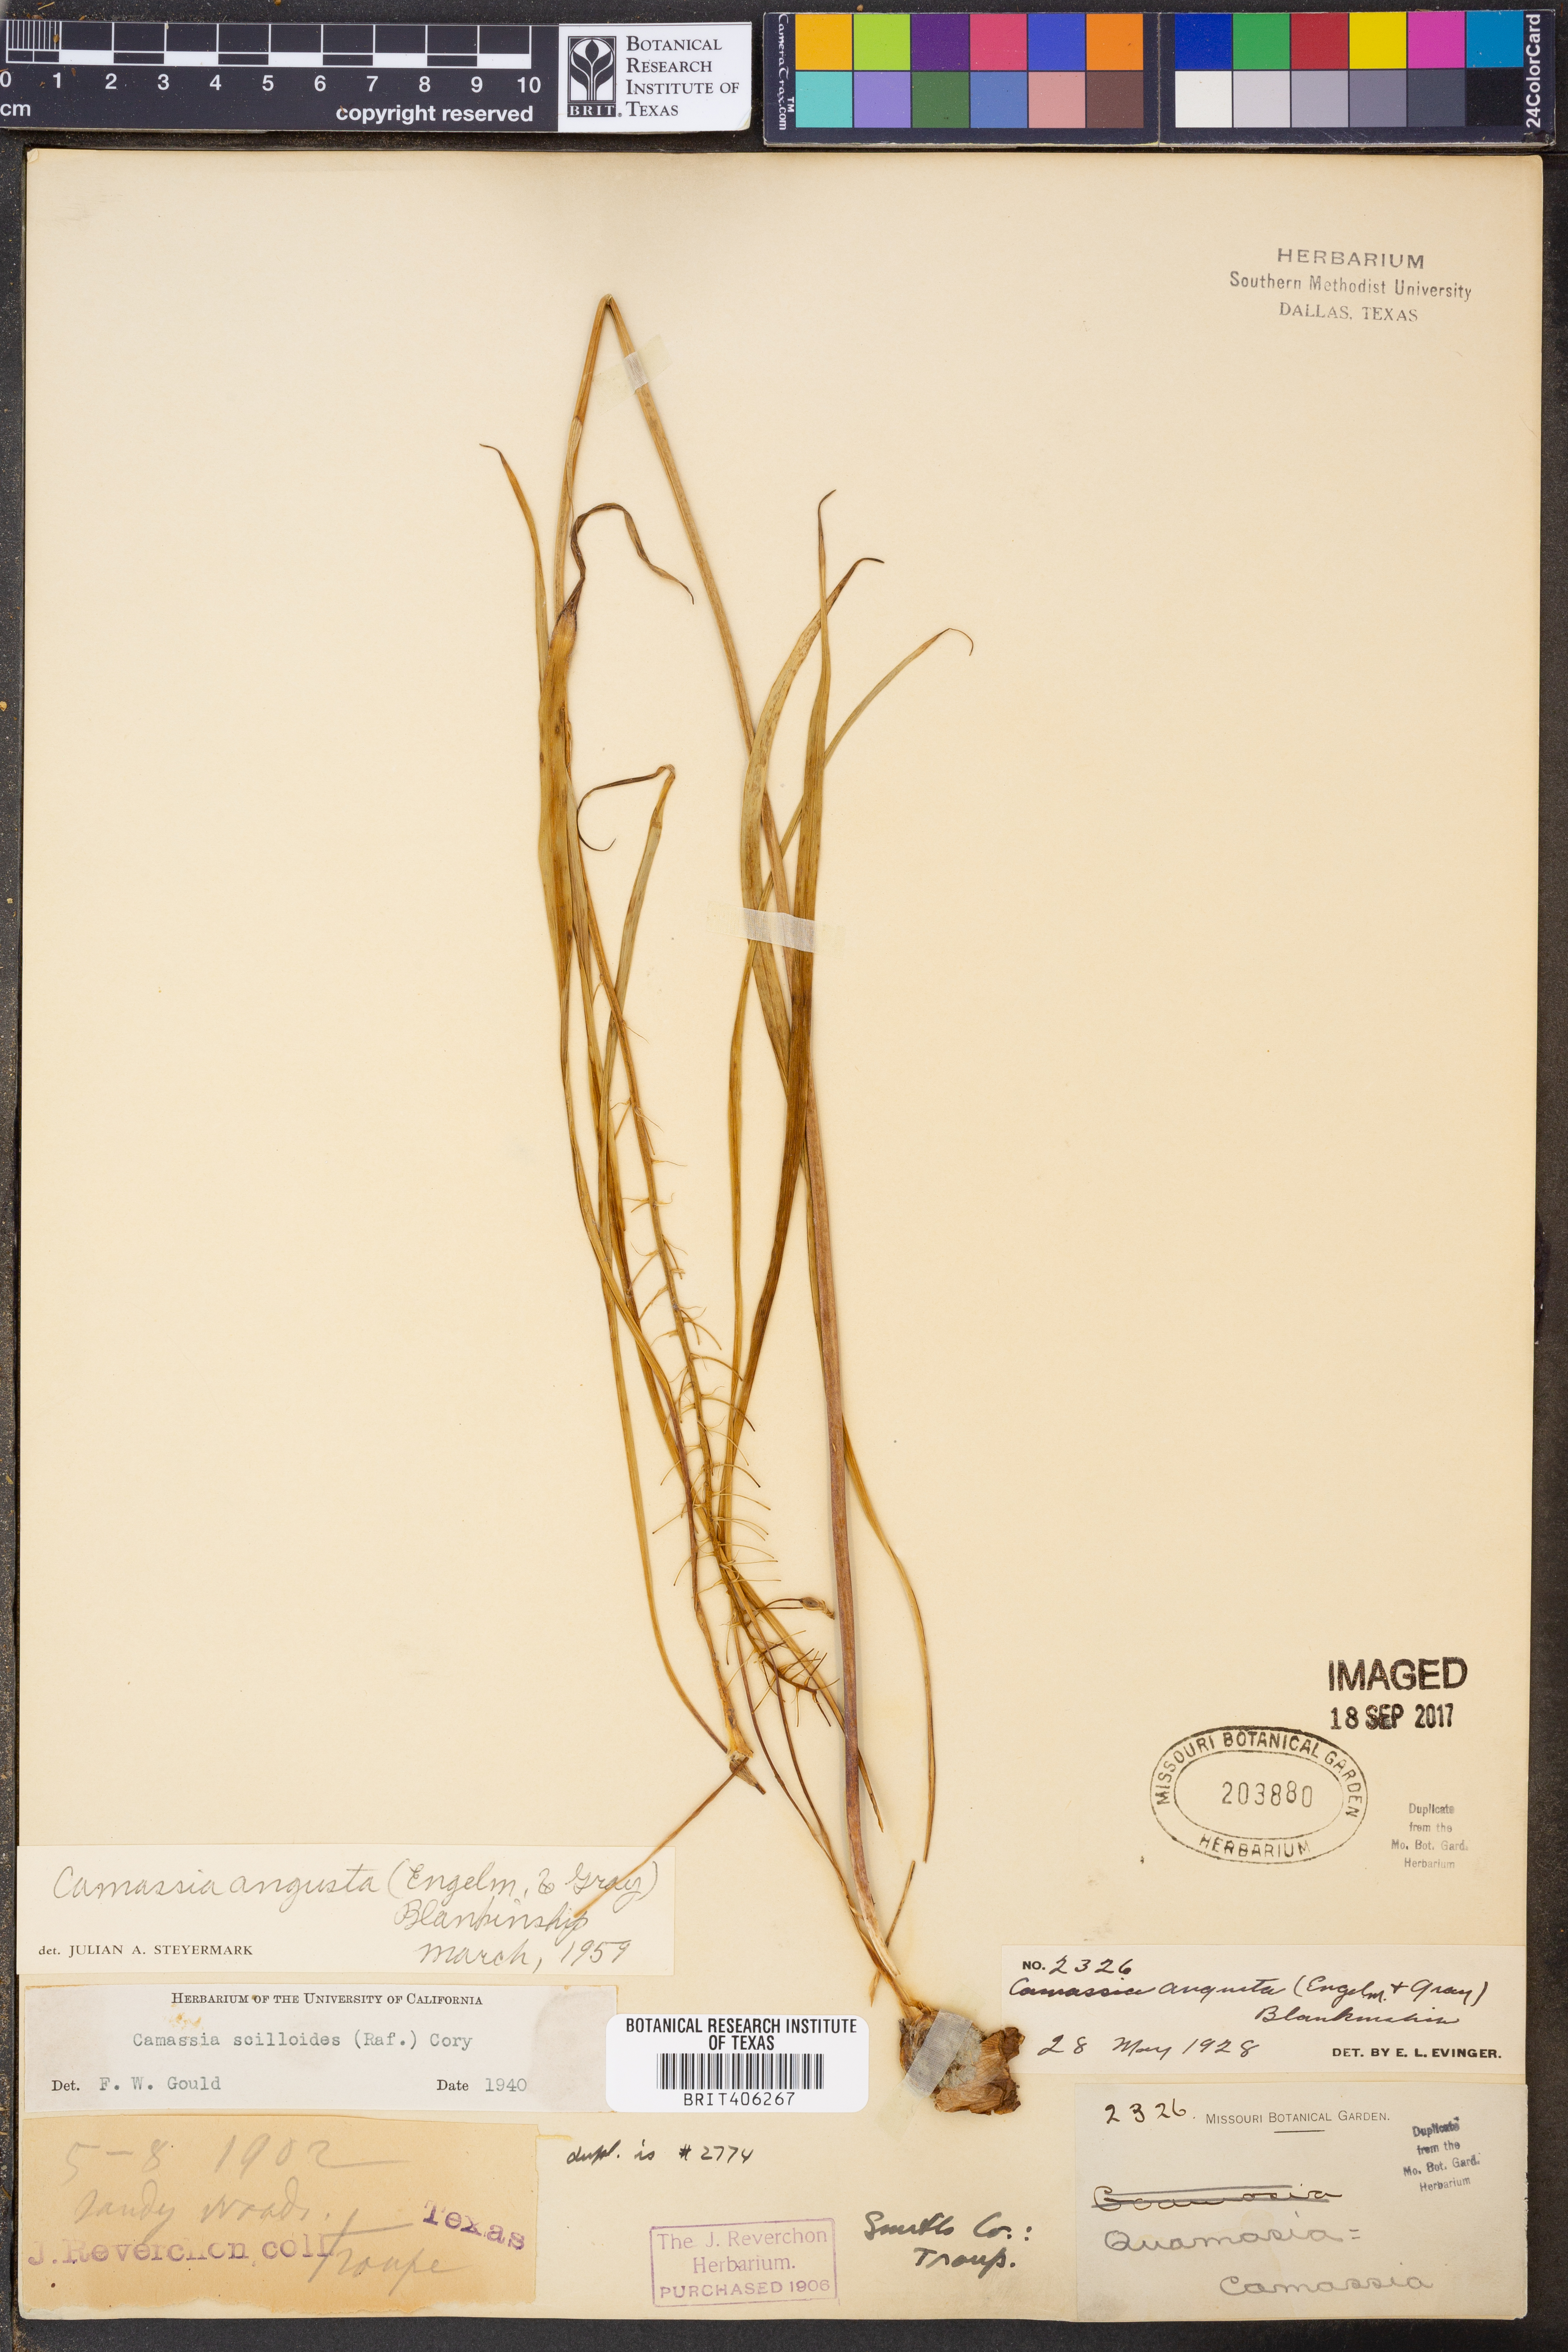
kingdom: Plantae
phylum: Tracheophyta
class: Liliopsida
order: Asparagales
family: Asparagaceae
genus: Camassia
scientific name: Camassia angusta
